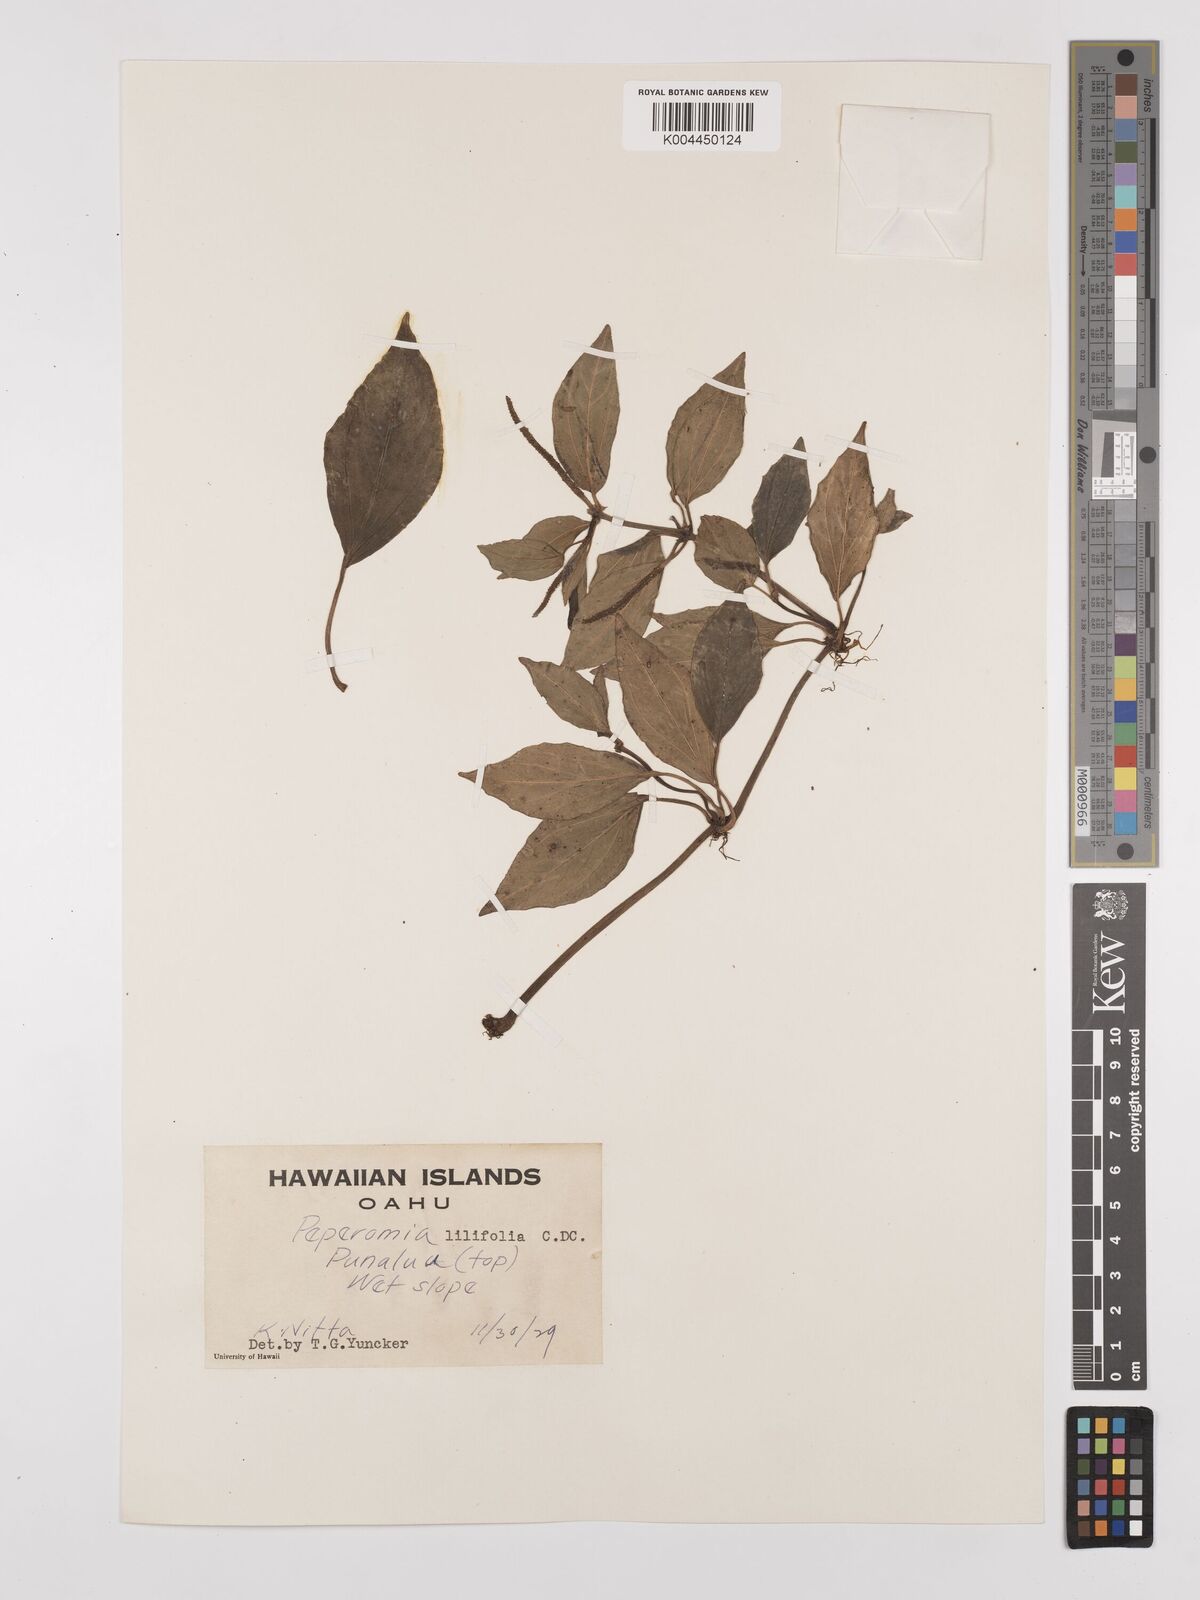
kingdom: Plantae
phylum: Tracheophyta
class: Magnoliopsida
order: Piperales
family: Piperaceae
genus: Peperomia
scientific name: Peperomia macraeana
